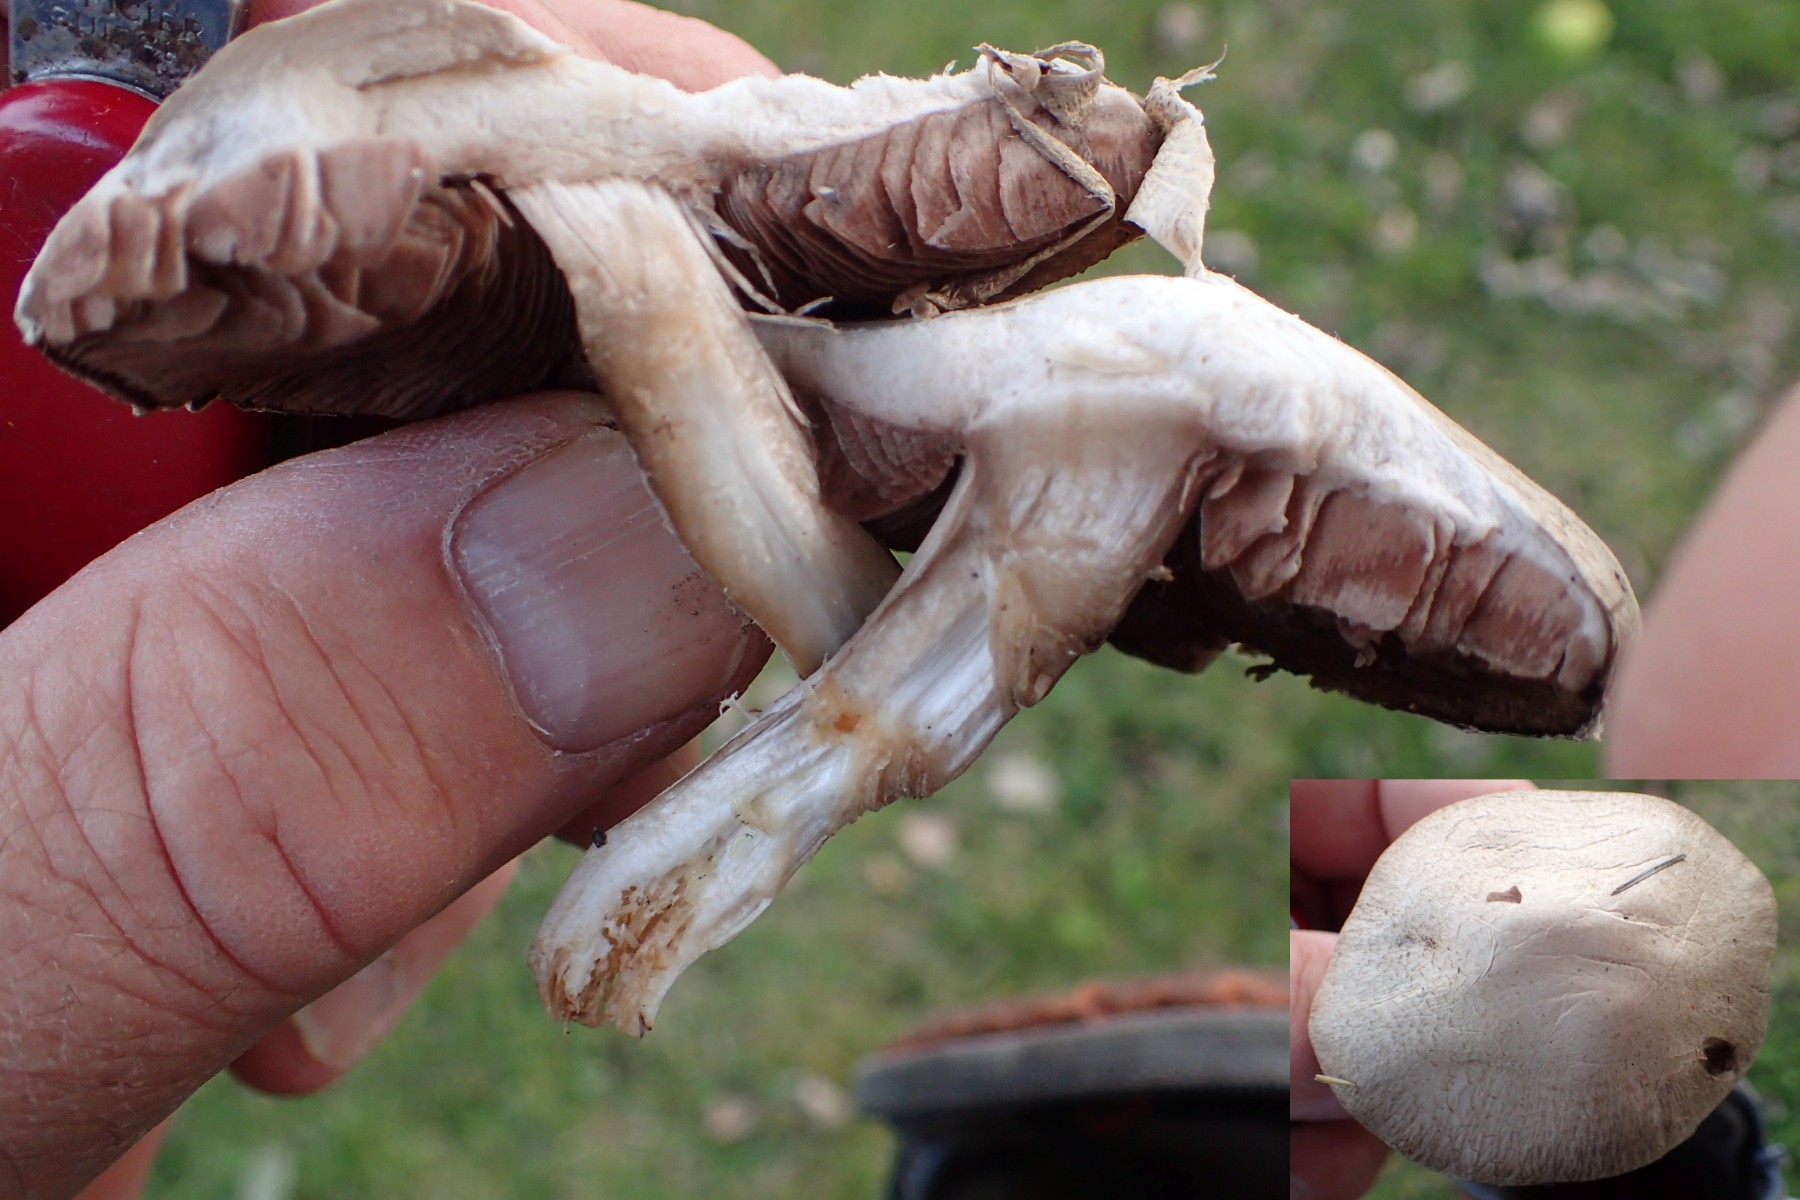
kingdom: Fungi
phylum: Basidiomycota
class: Agaricomycetes
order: Agaricales
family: Agaricaceae
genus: Agaricus
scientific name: Agaricus impudicus
